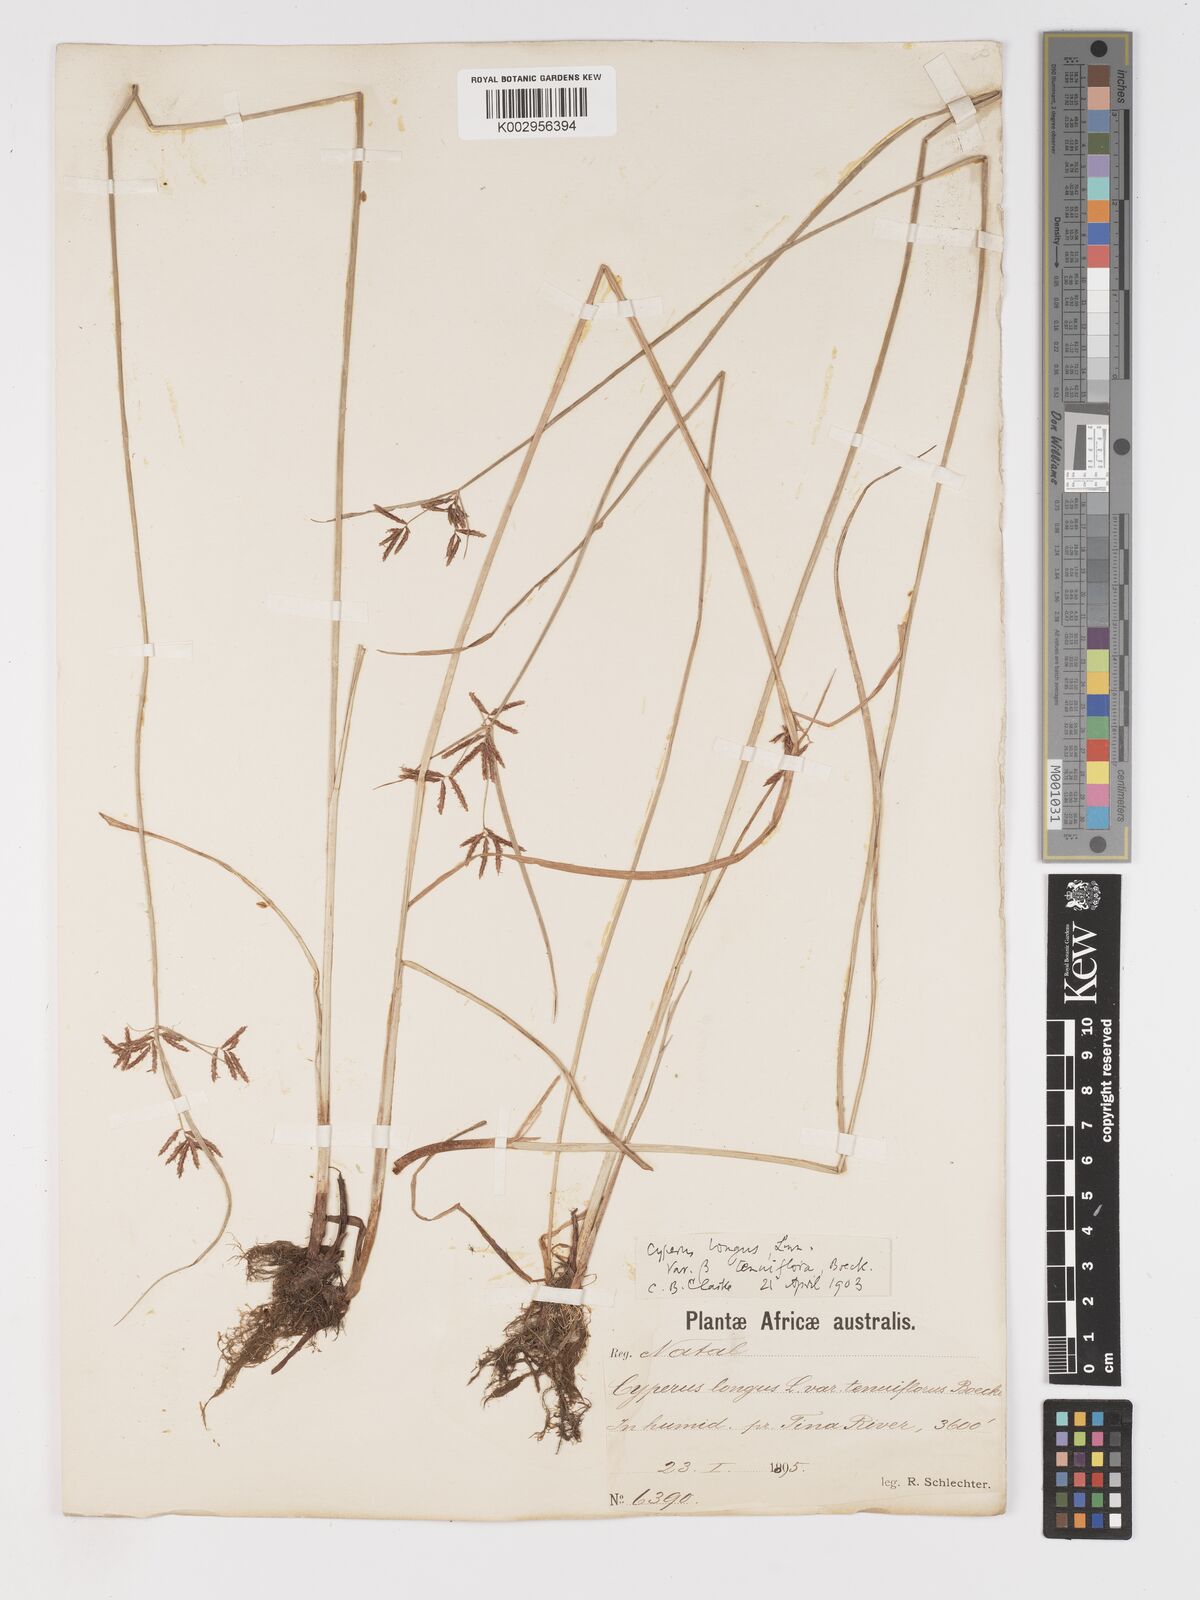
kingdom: Plantae
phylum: Tracheophyta
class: Liliopsida
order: Poales
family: Cyperaceae
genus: Cyperus
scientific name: Cyperus longus
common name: Galingale
